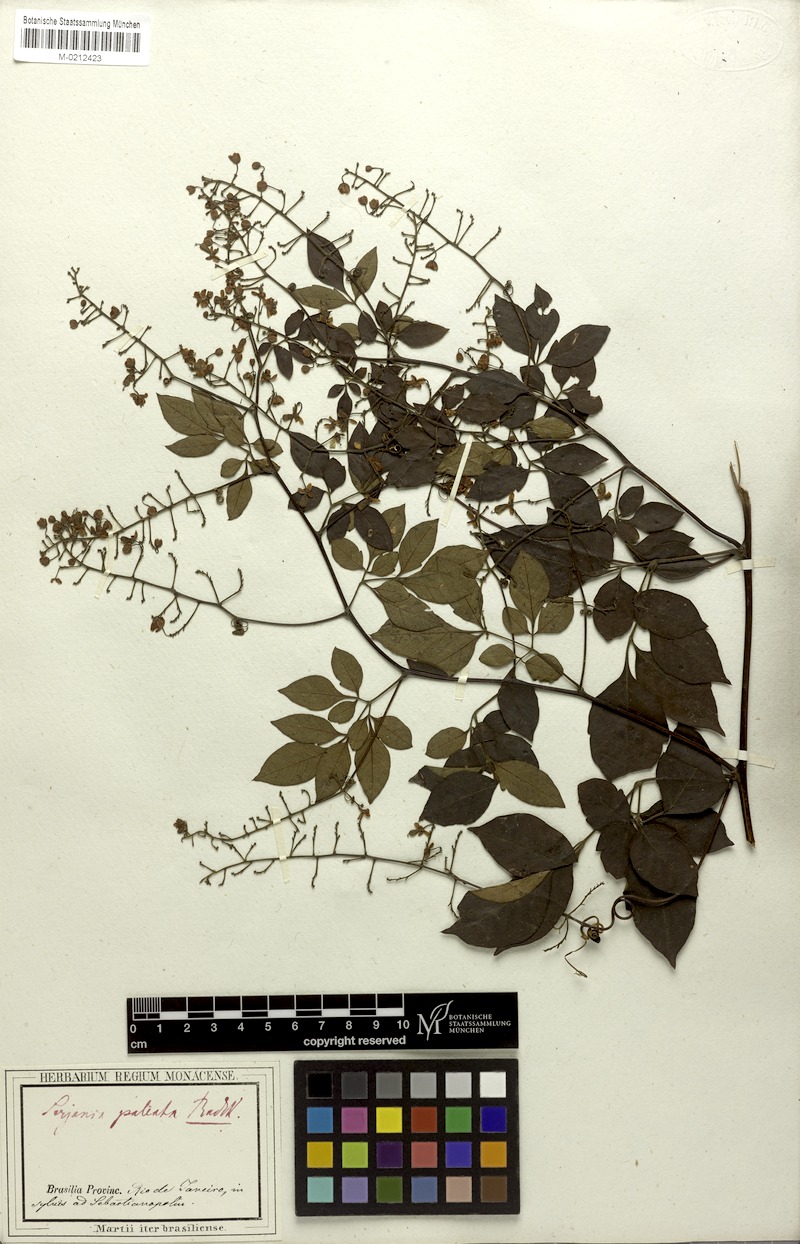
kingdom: Plantae
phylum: Tracheophyta
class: Magnoliopsida
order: Sapindales
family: Sapindaceae
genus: Serjania
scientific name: Serjania paleata
